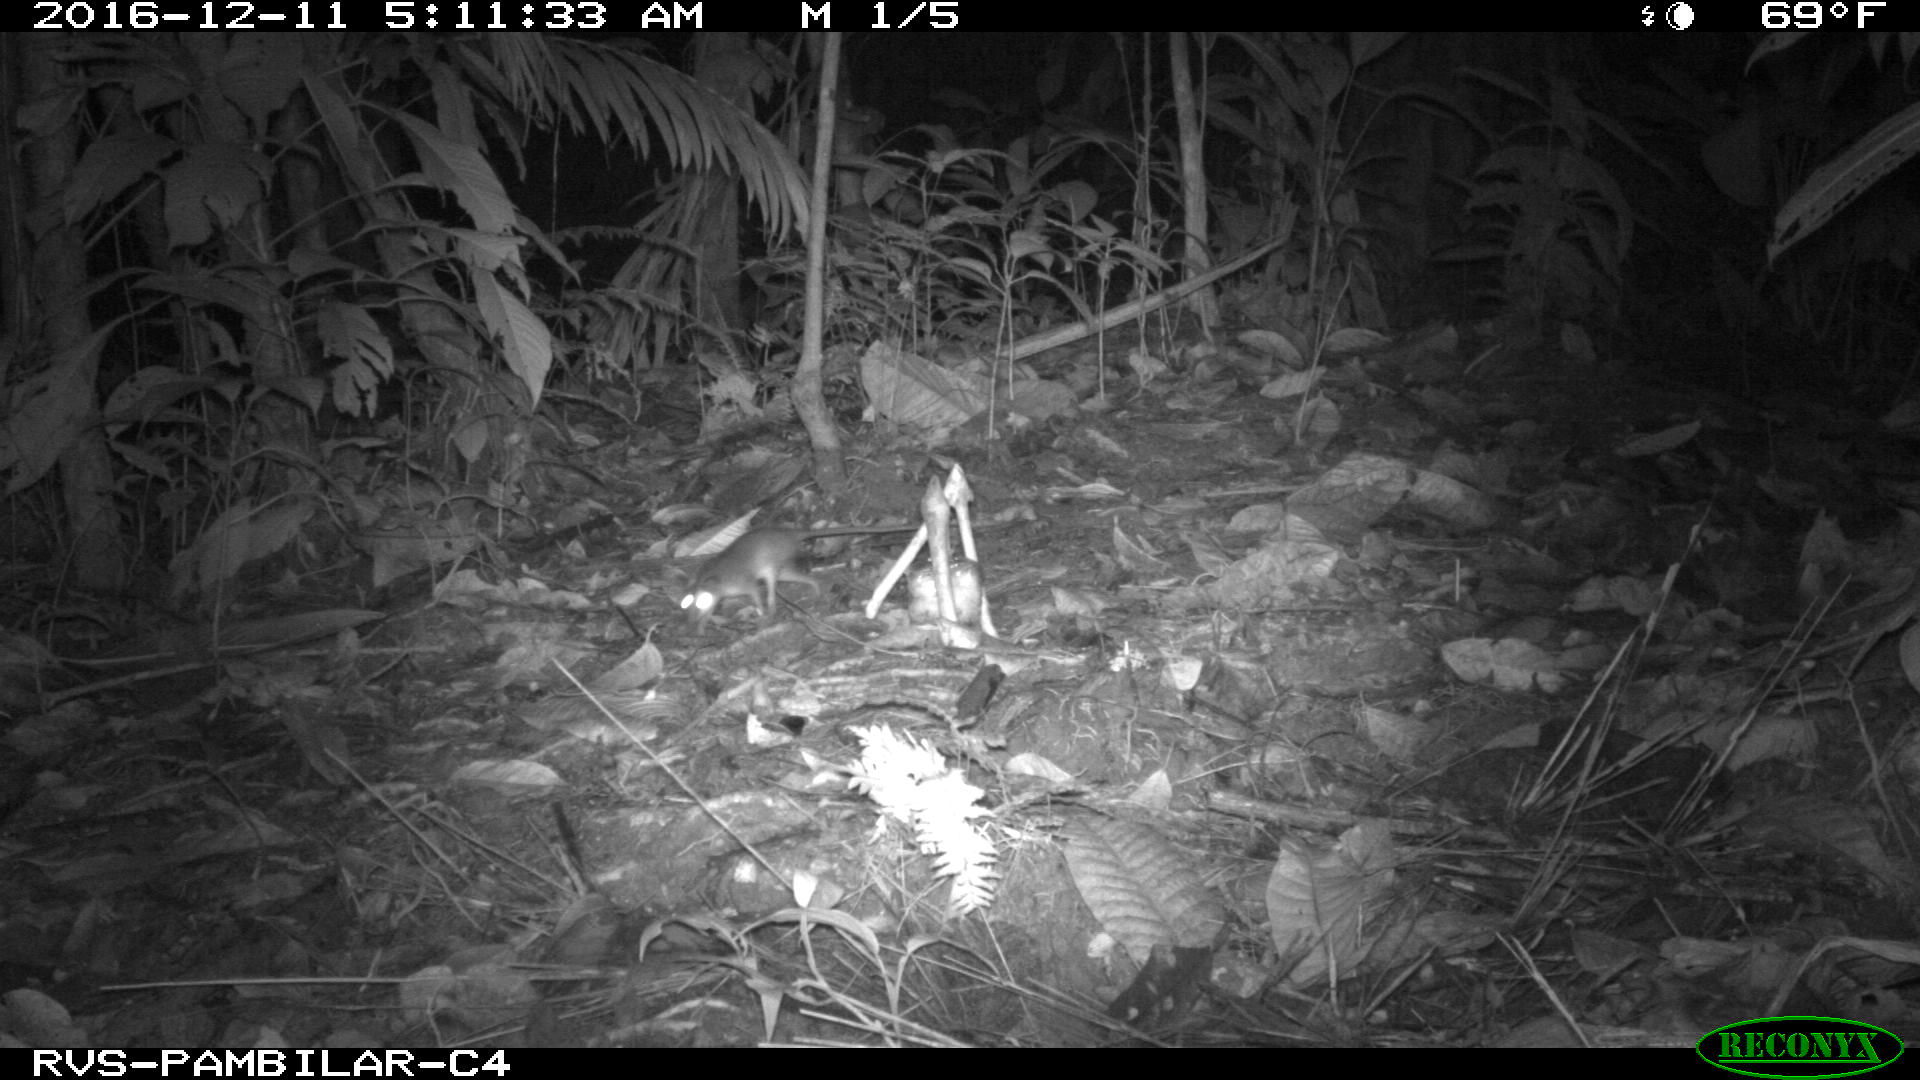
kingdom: Animalia
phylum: Chordata
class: Mammalia
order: Rodentia
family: Echimyidae
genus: Proechimys
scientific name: Proechimys
